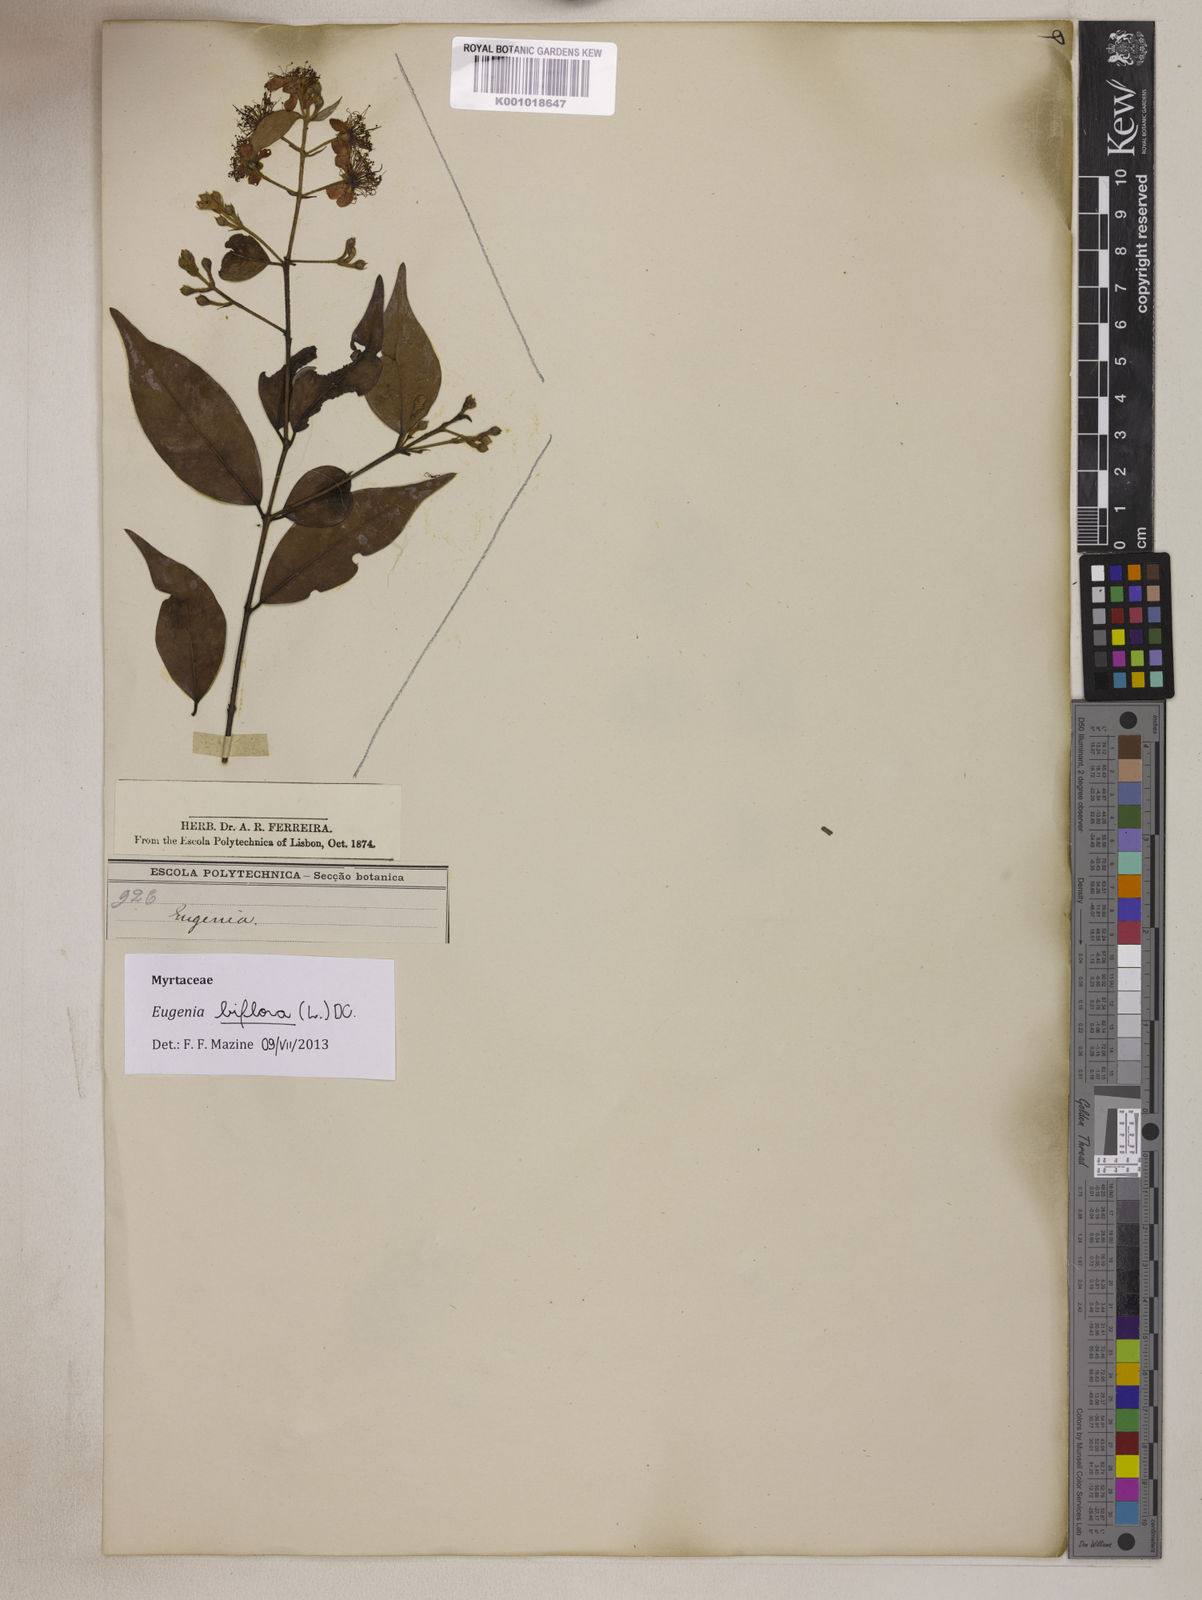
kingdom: Plantae
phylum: Tracheophyta
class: Magnoliopsida
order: Myrtales
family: Myrtaceae
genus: Eugenia
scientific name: Eugenia biflora
